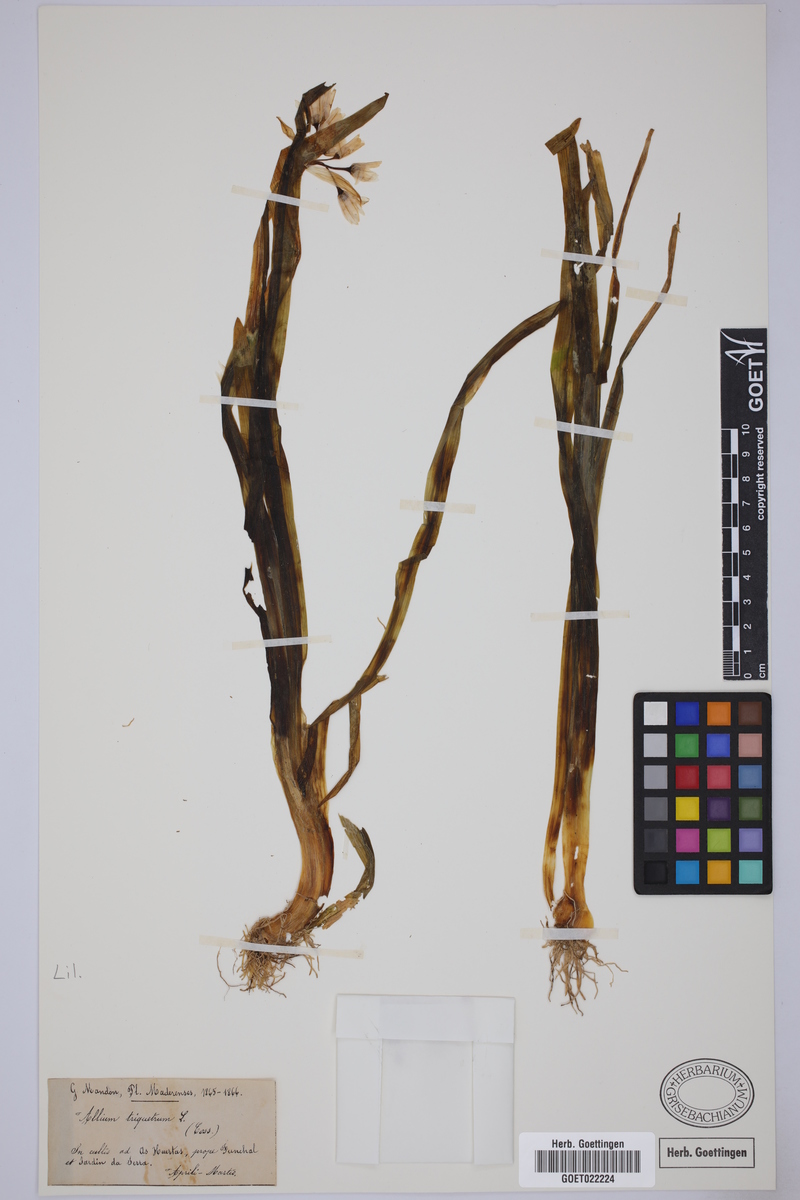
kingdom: Plantae
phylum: Tracheophyta
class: Liliopsida
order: Asparagales
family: Amaryllidaceae
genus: Allium
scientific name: Allium triquetrum
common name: Three-cornered garlic
